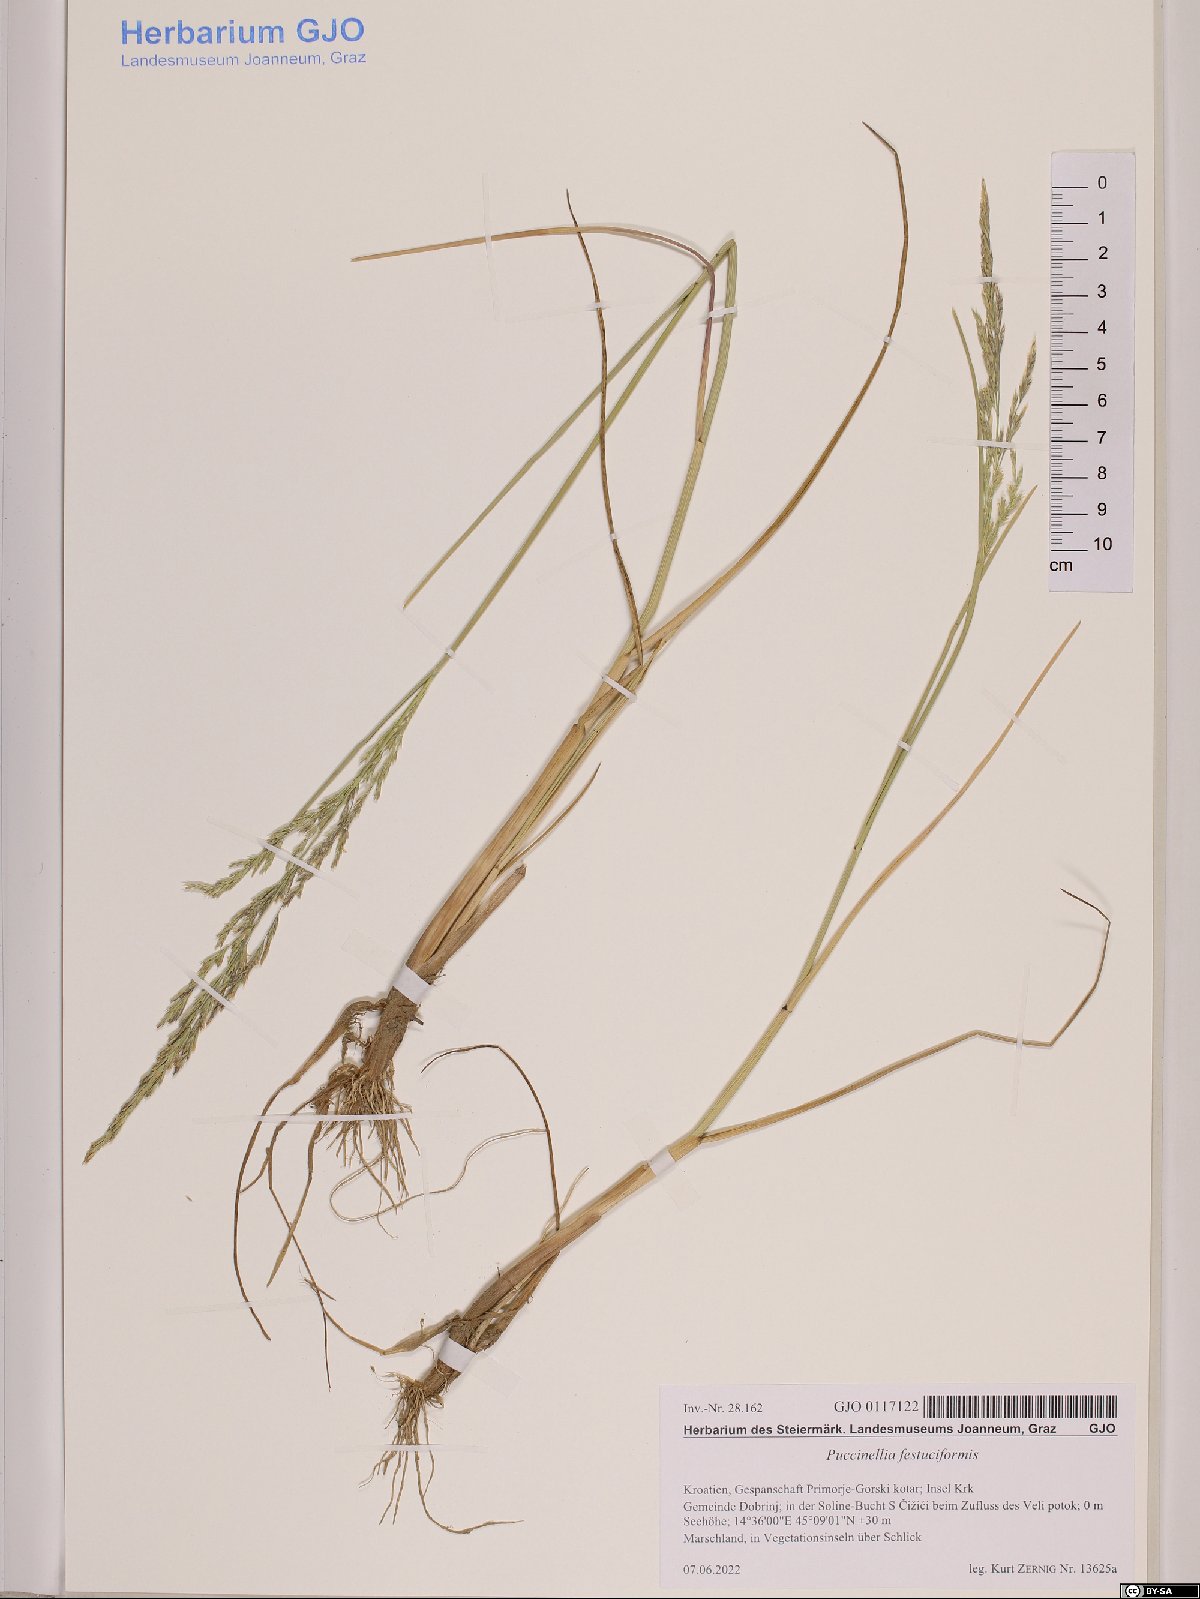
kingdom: Plantae
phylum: Tracheophyta
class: Liliopsida
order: Poales
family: Poaceae
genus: Puccinellia
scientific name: Puccinellia festuciformis
